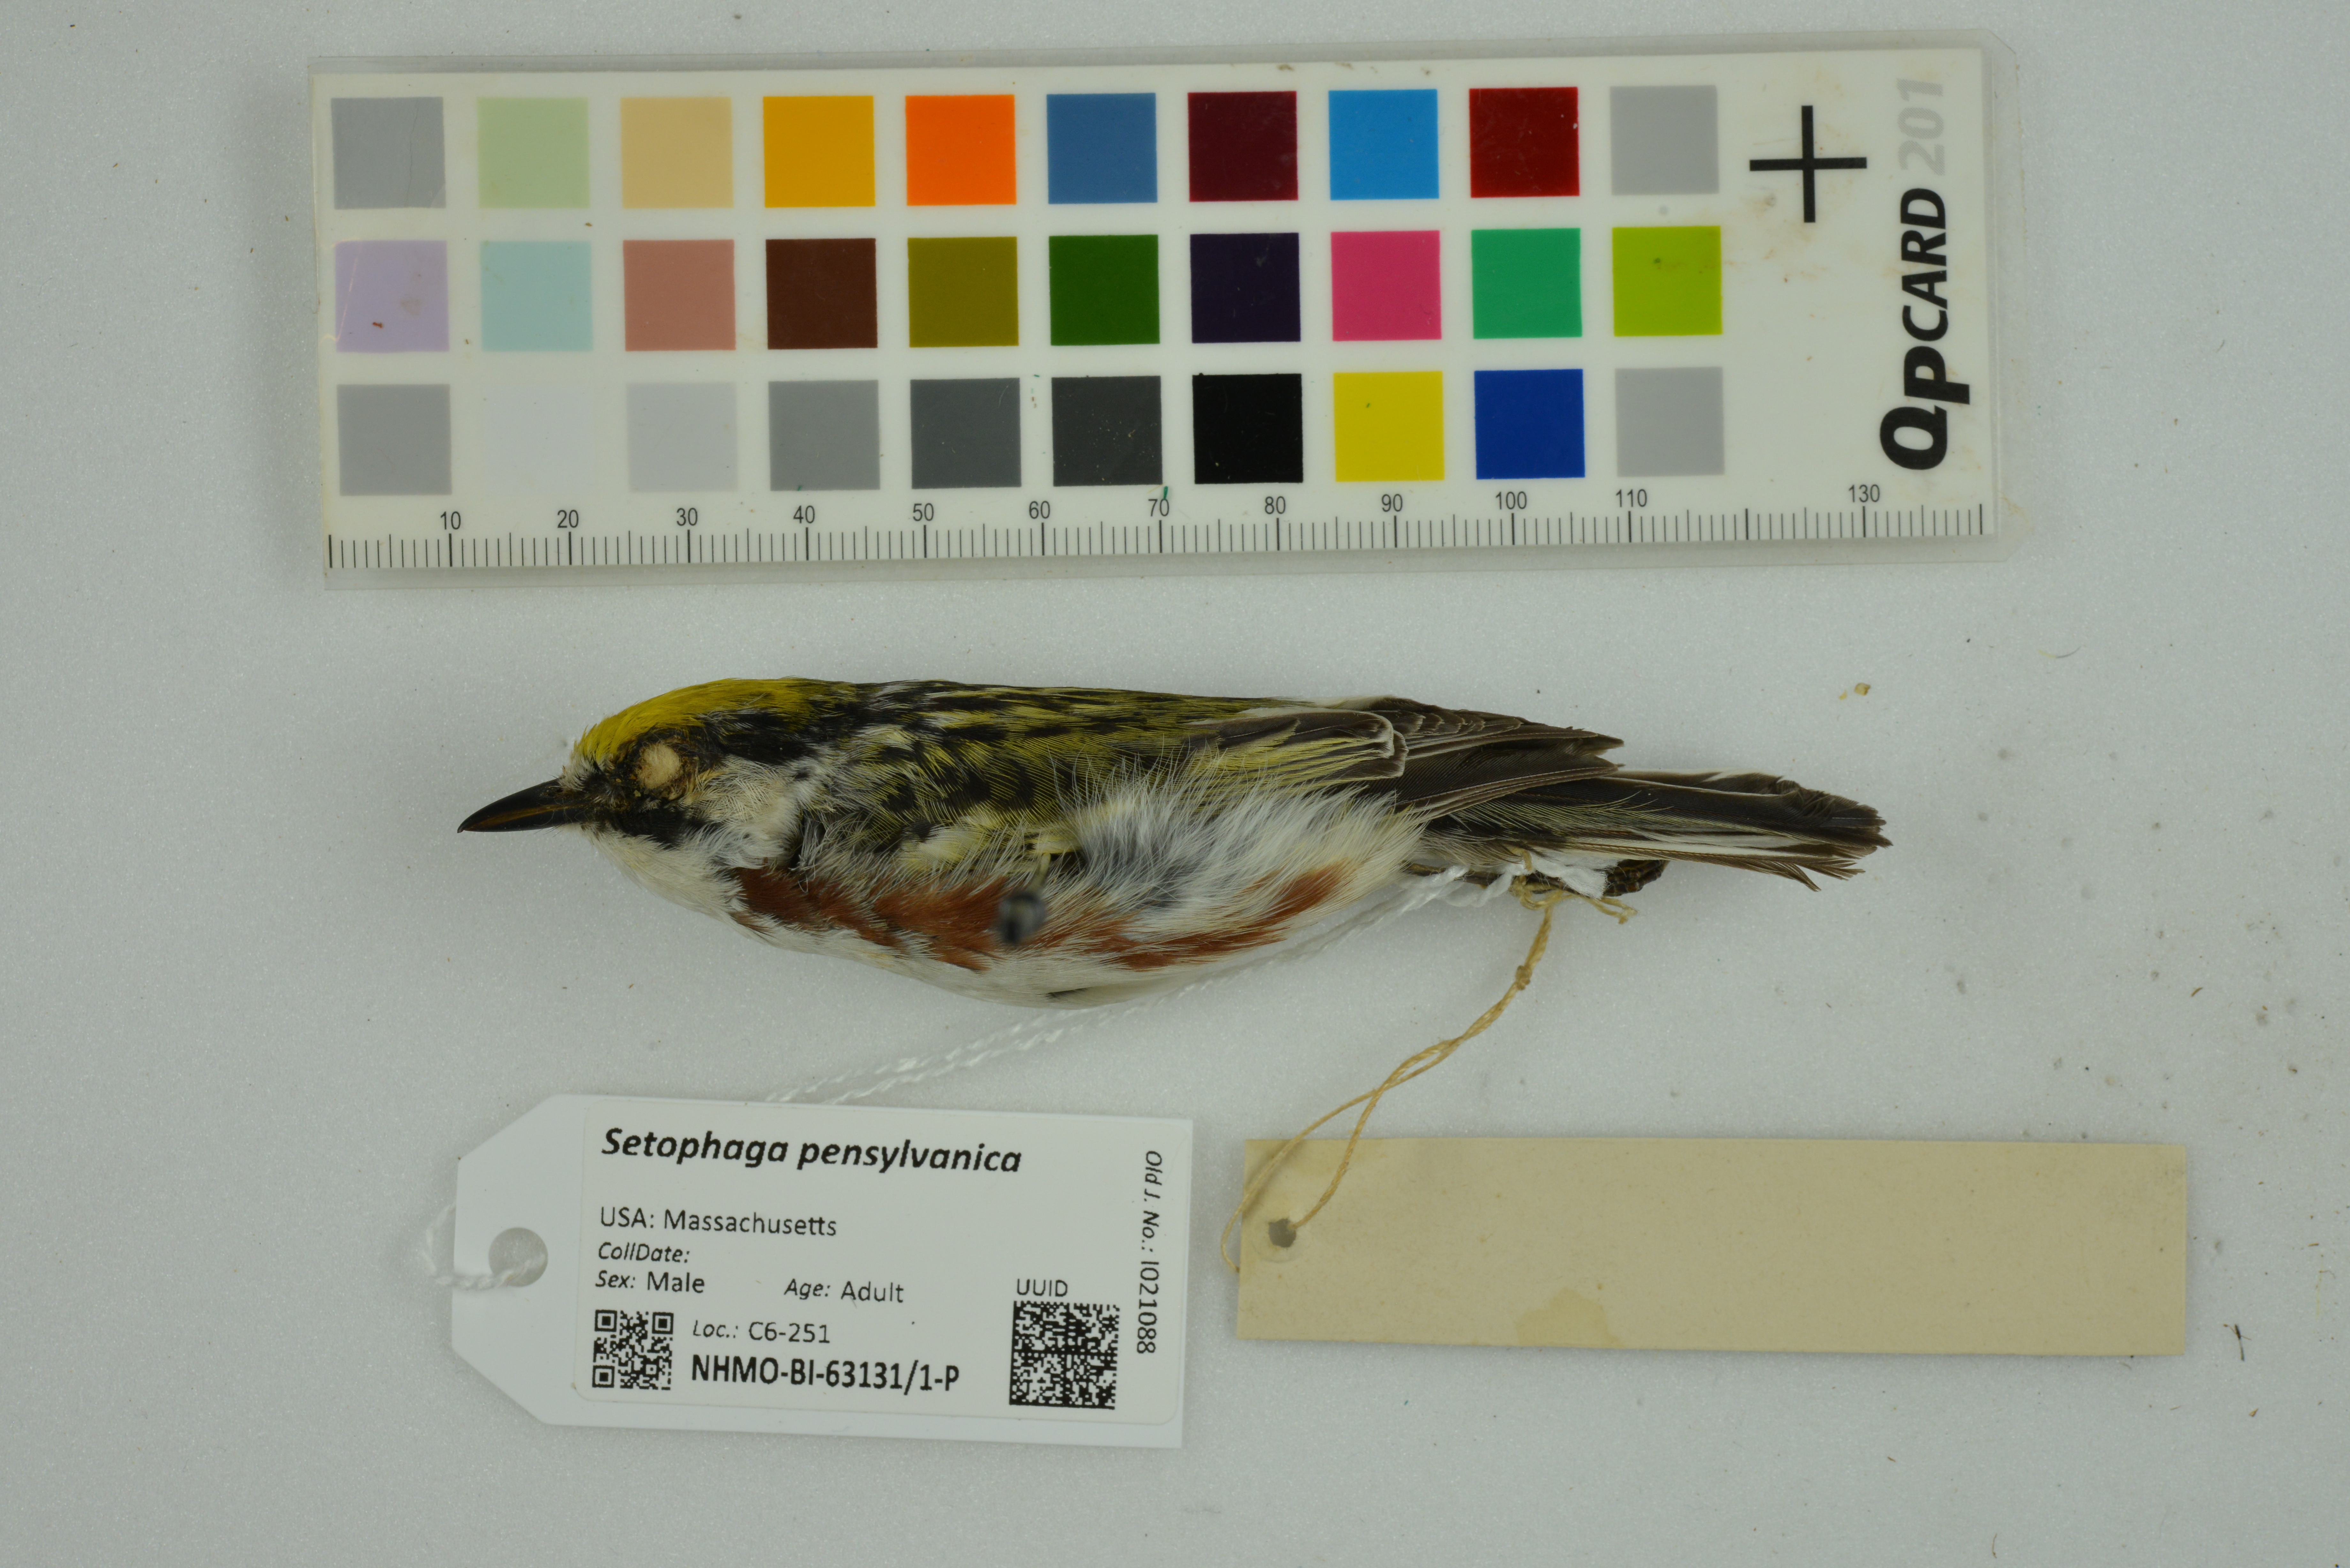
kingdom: Animalia
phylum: Chordata
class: Aves
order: Passeriformes
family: Parulidae
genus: Setophaga
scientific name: Setophaga pensylvanica
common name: Chestnut-sided warbler
